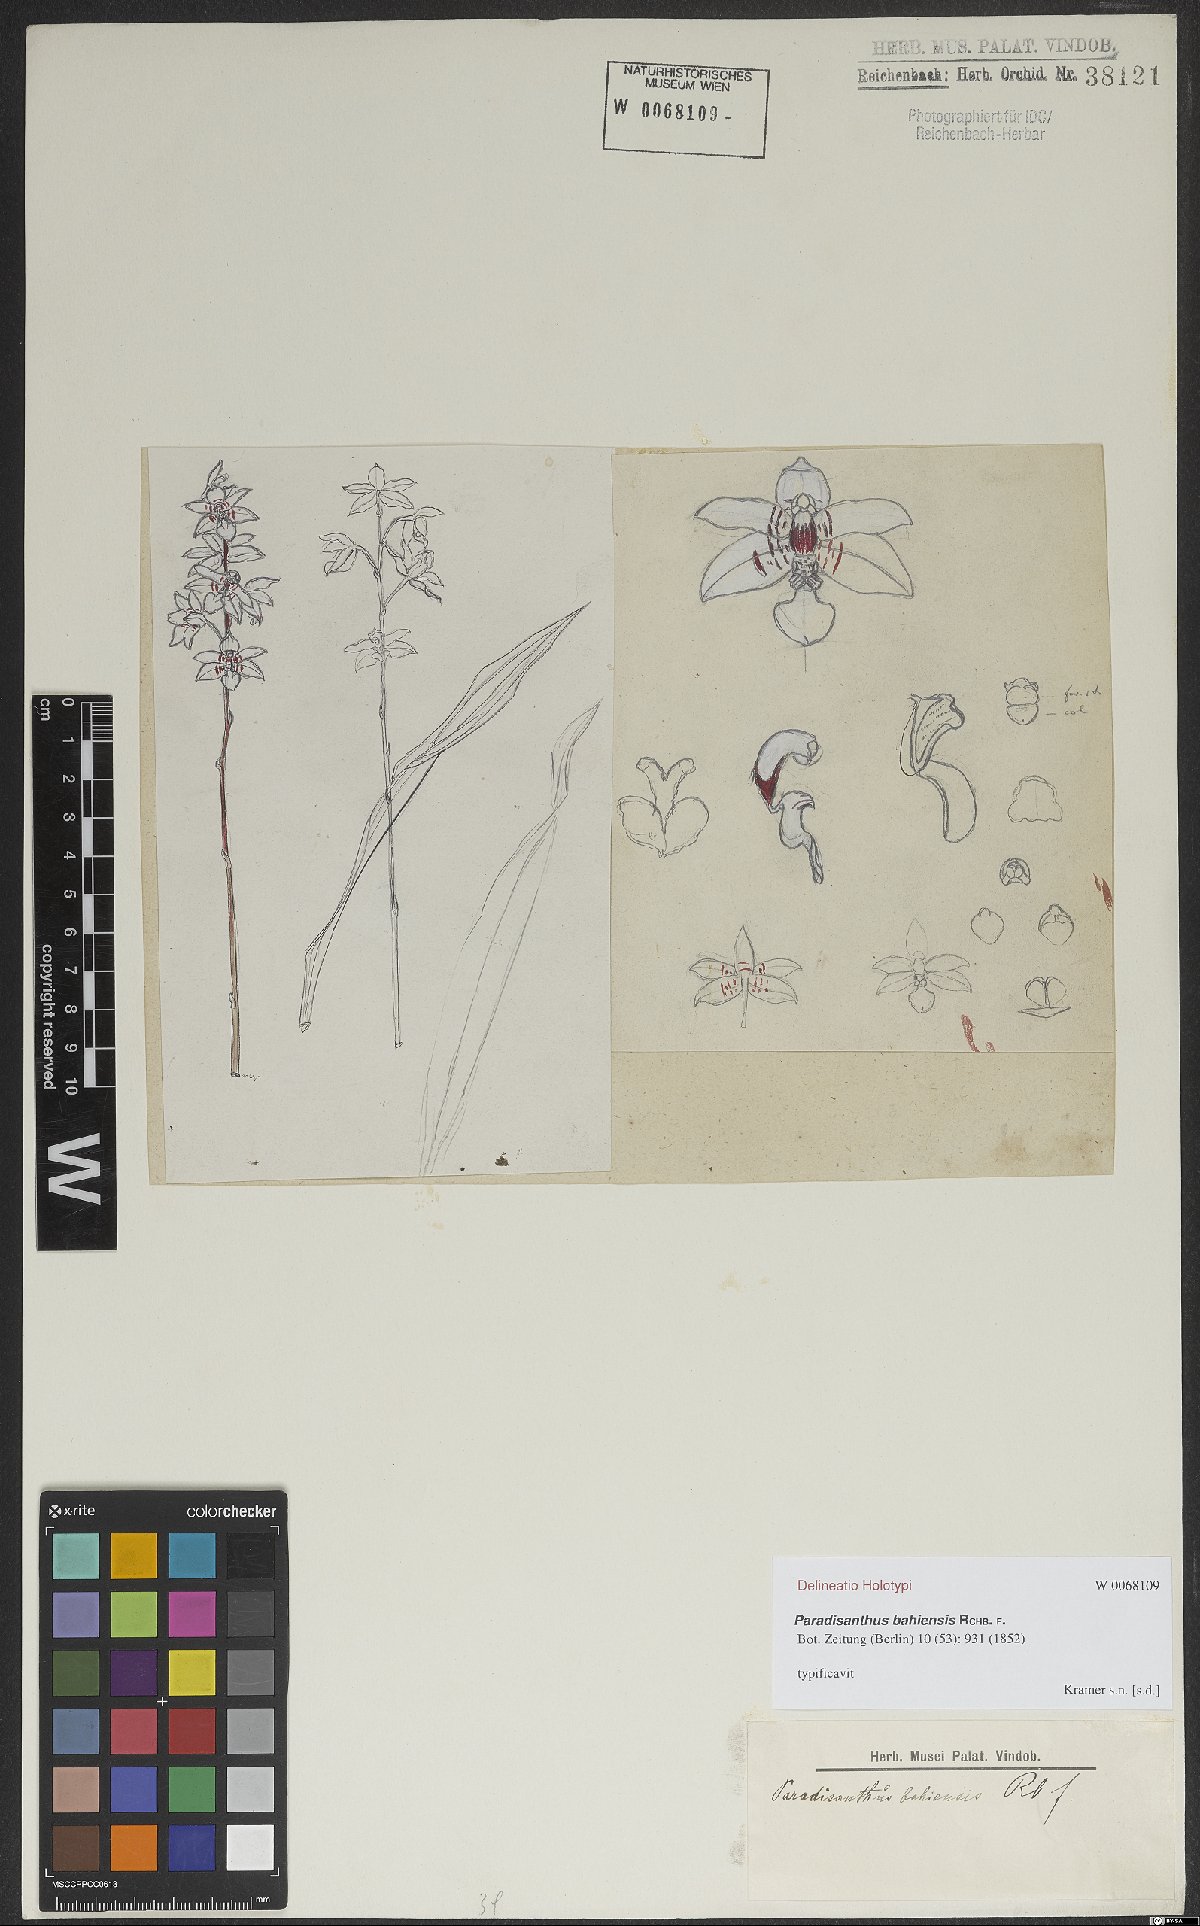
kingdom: Plantae
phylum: Tracheophyta
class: Liliopsida
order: Asparagales
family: Orchidaceae
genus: Paradisanthus
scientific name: Paradisanthus bahiensis
